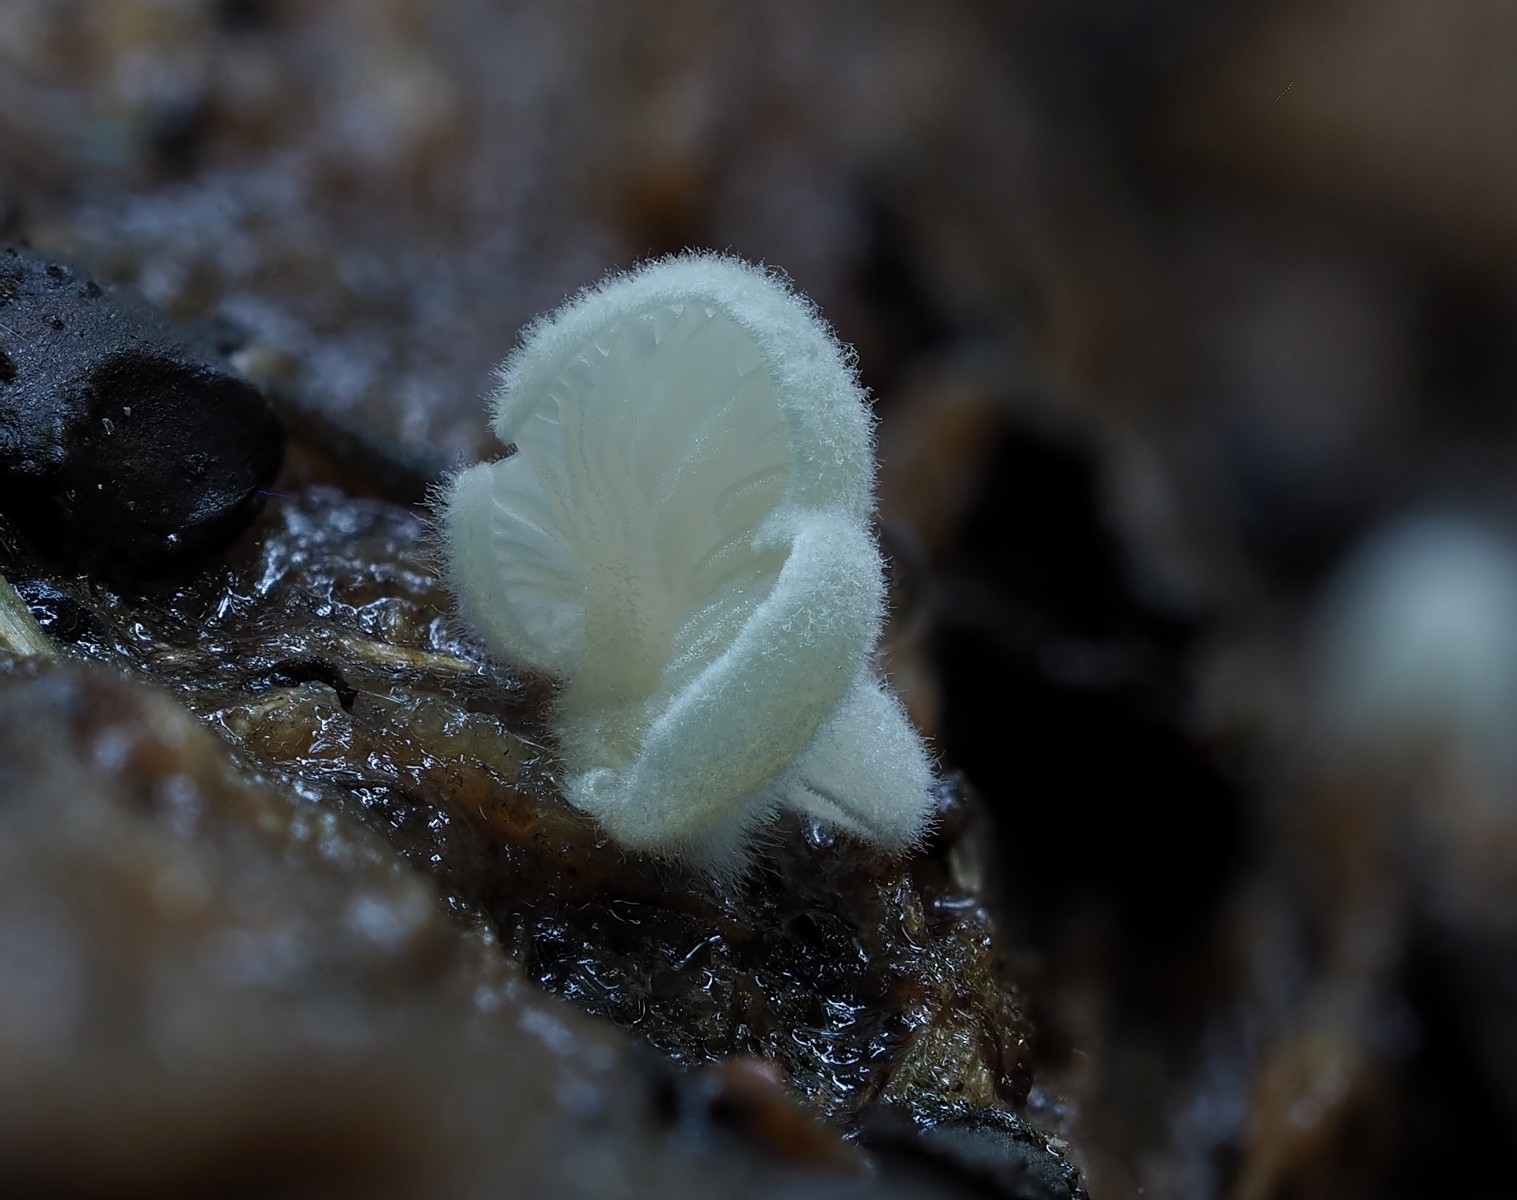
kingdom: Fungi
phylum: Basidiomycota
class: Agaricomycetes
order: Agaricales
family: Entolomataceae
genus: Clitopilus
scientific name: Clitopilus hobsonii
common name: Miller's oysterling
